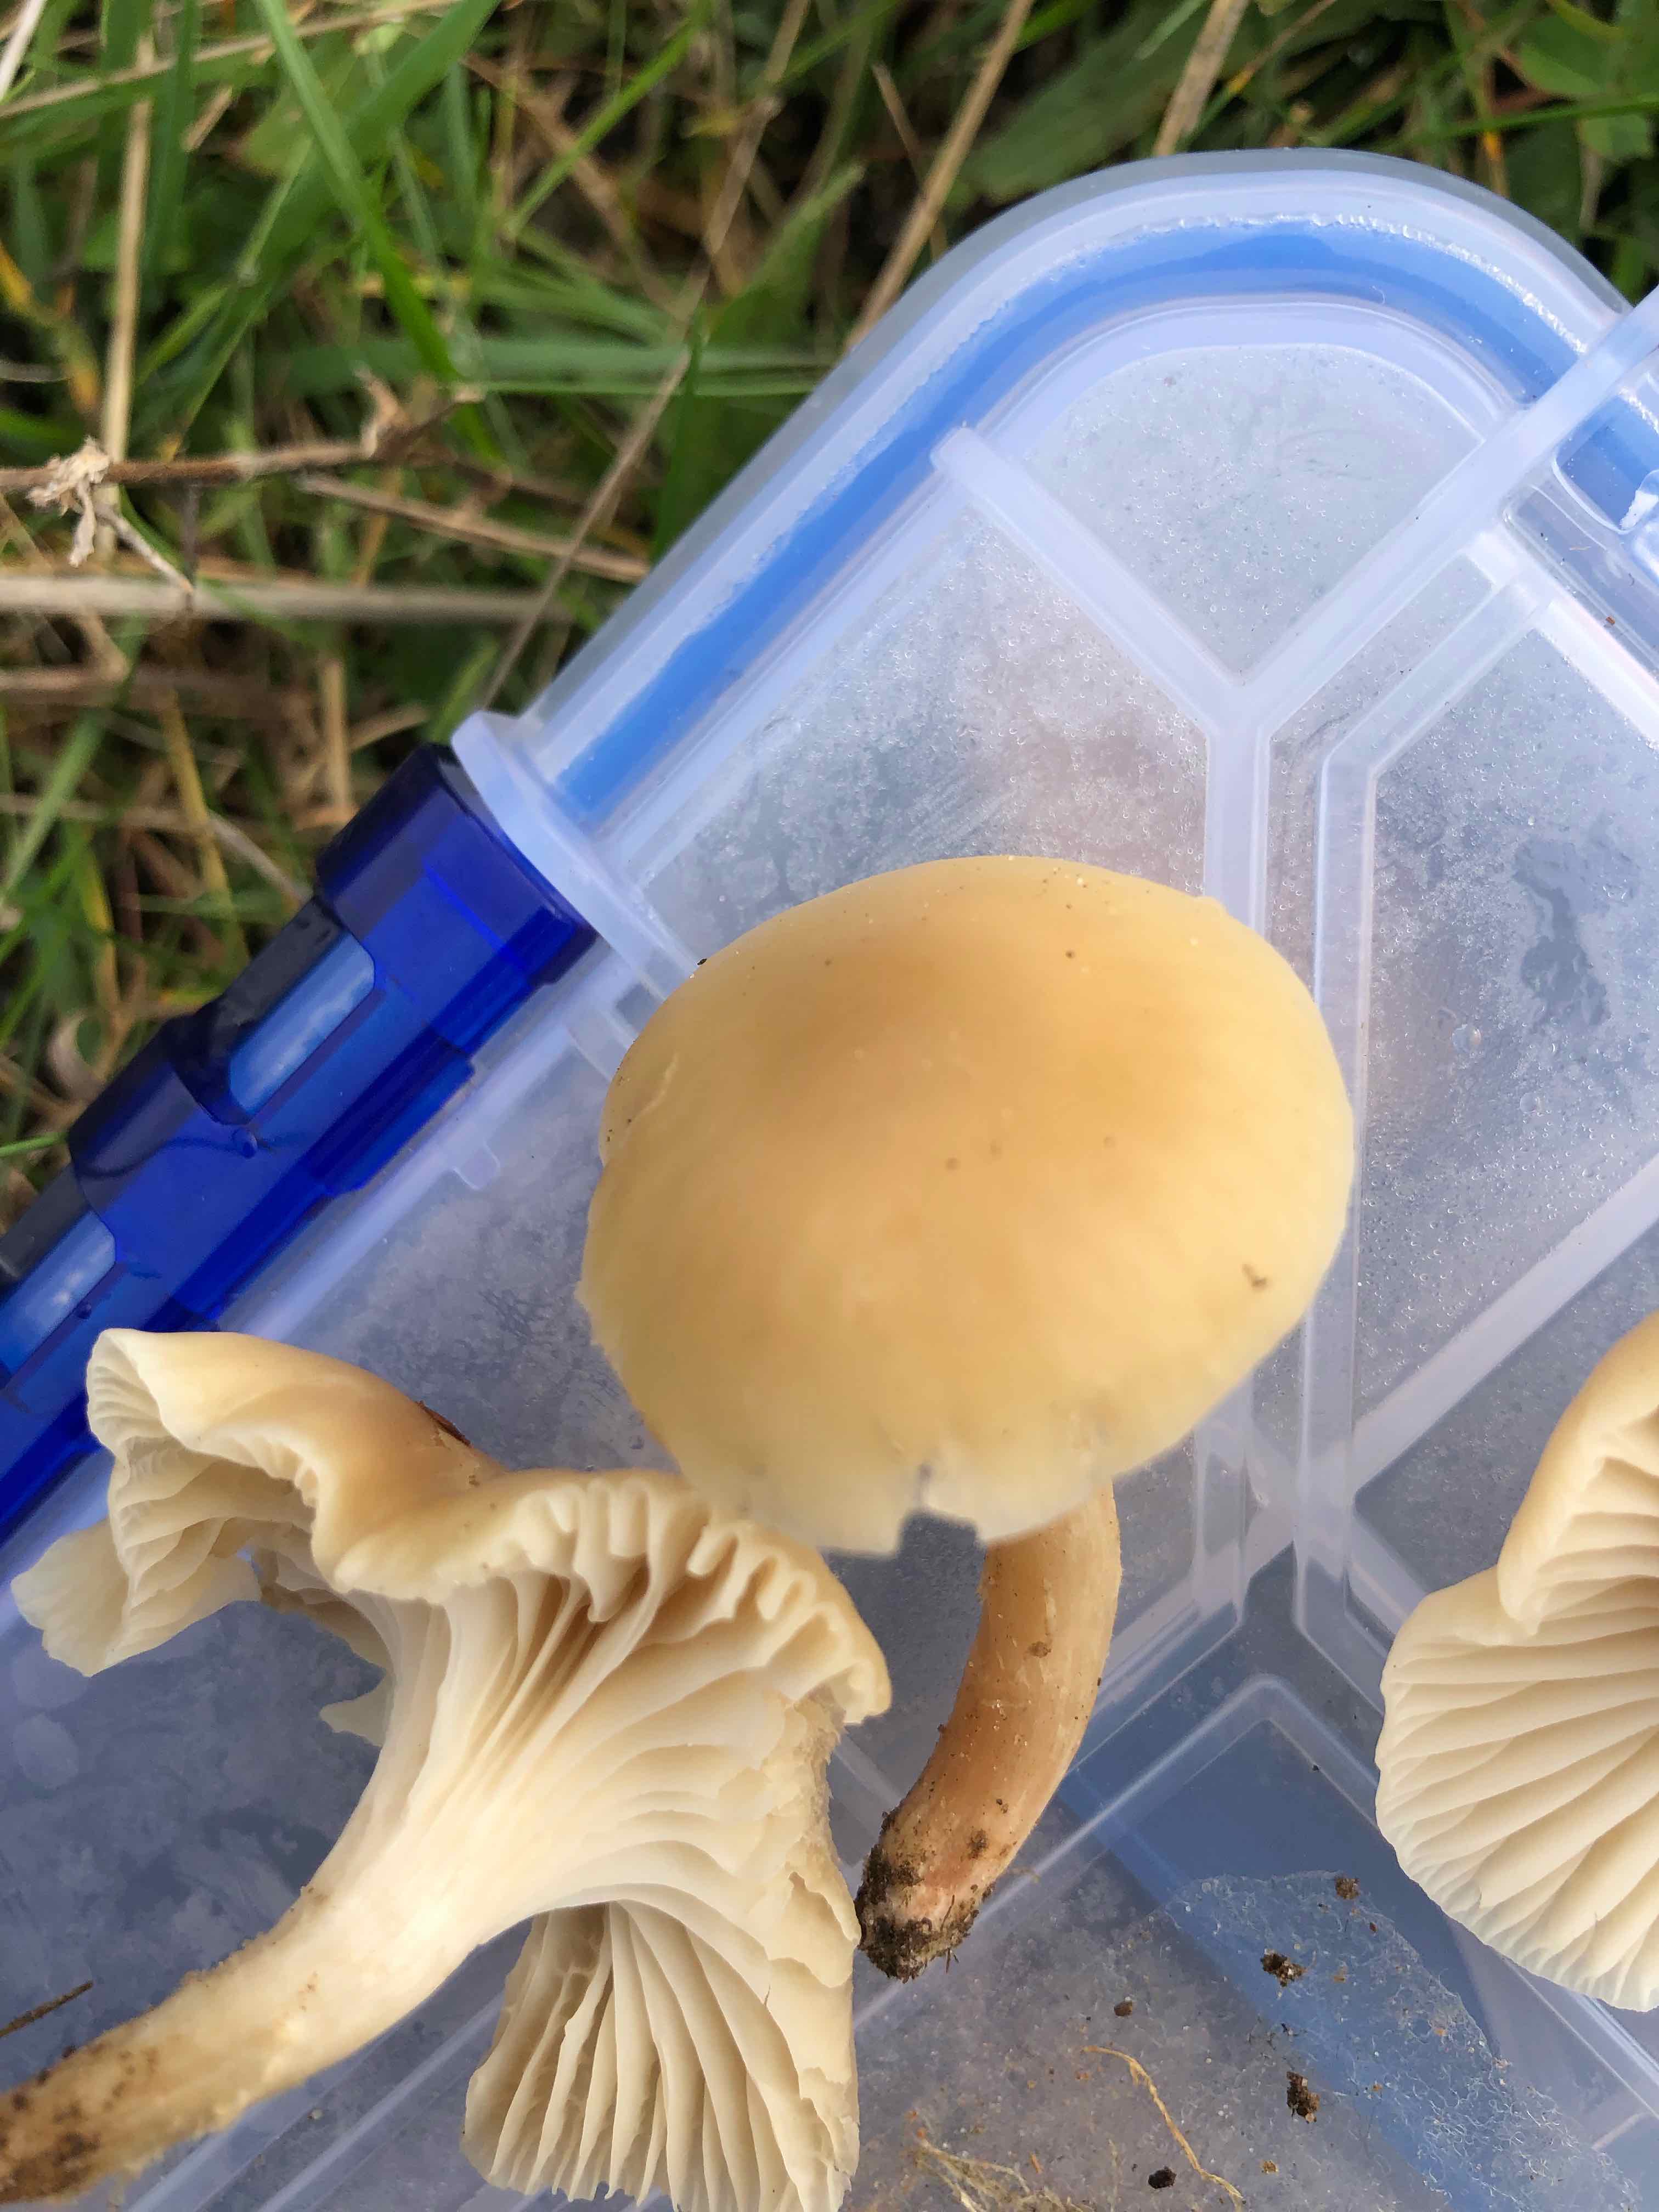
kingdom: Fungi
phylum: Basidiomycota
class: Agaricomycetes
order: Agaricales
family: Hygrophoraceae
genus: Cuphophyllus
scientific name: Cuphophyllus virgineus
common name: isabella-vokshat
